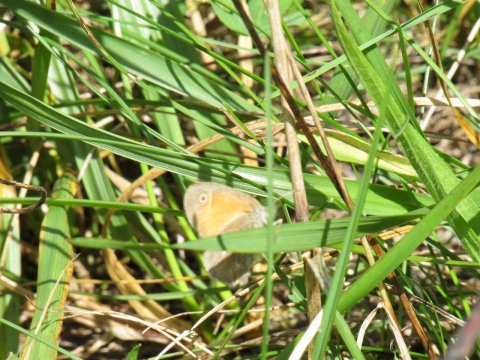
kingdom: Animalia
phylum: Arthropoda
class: Insecta
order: Lepidoptera
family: Nymphalidae
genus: Coenonympha
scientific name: Coenonympha tullia
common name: Large Heath
